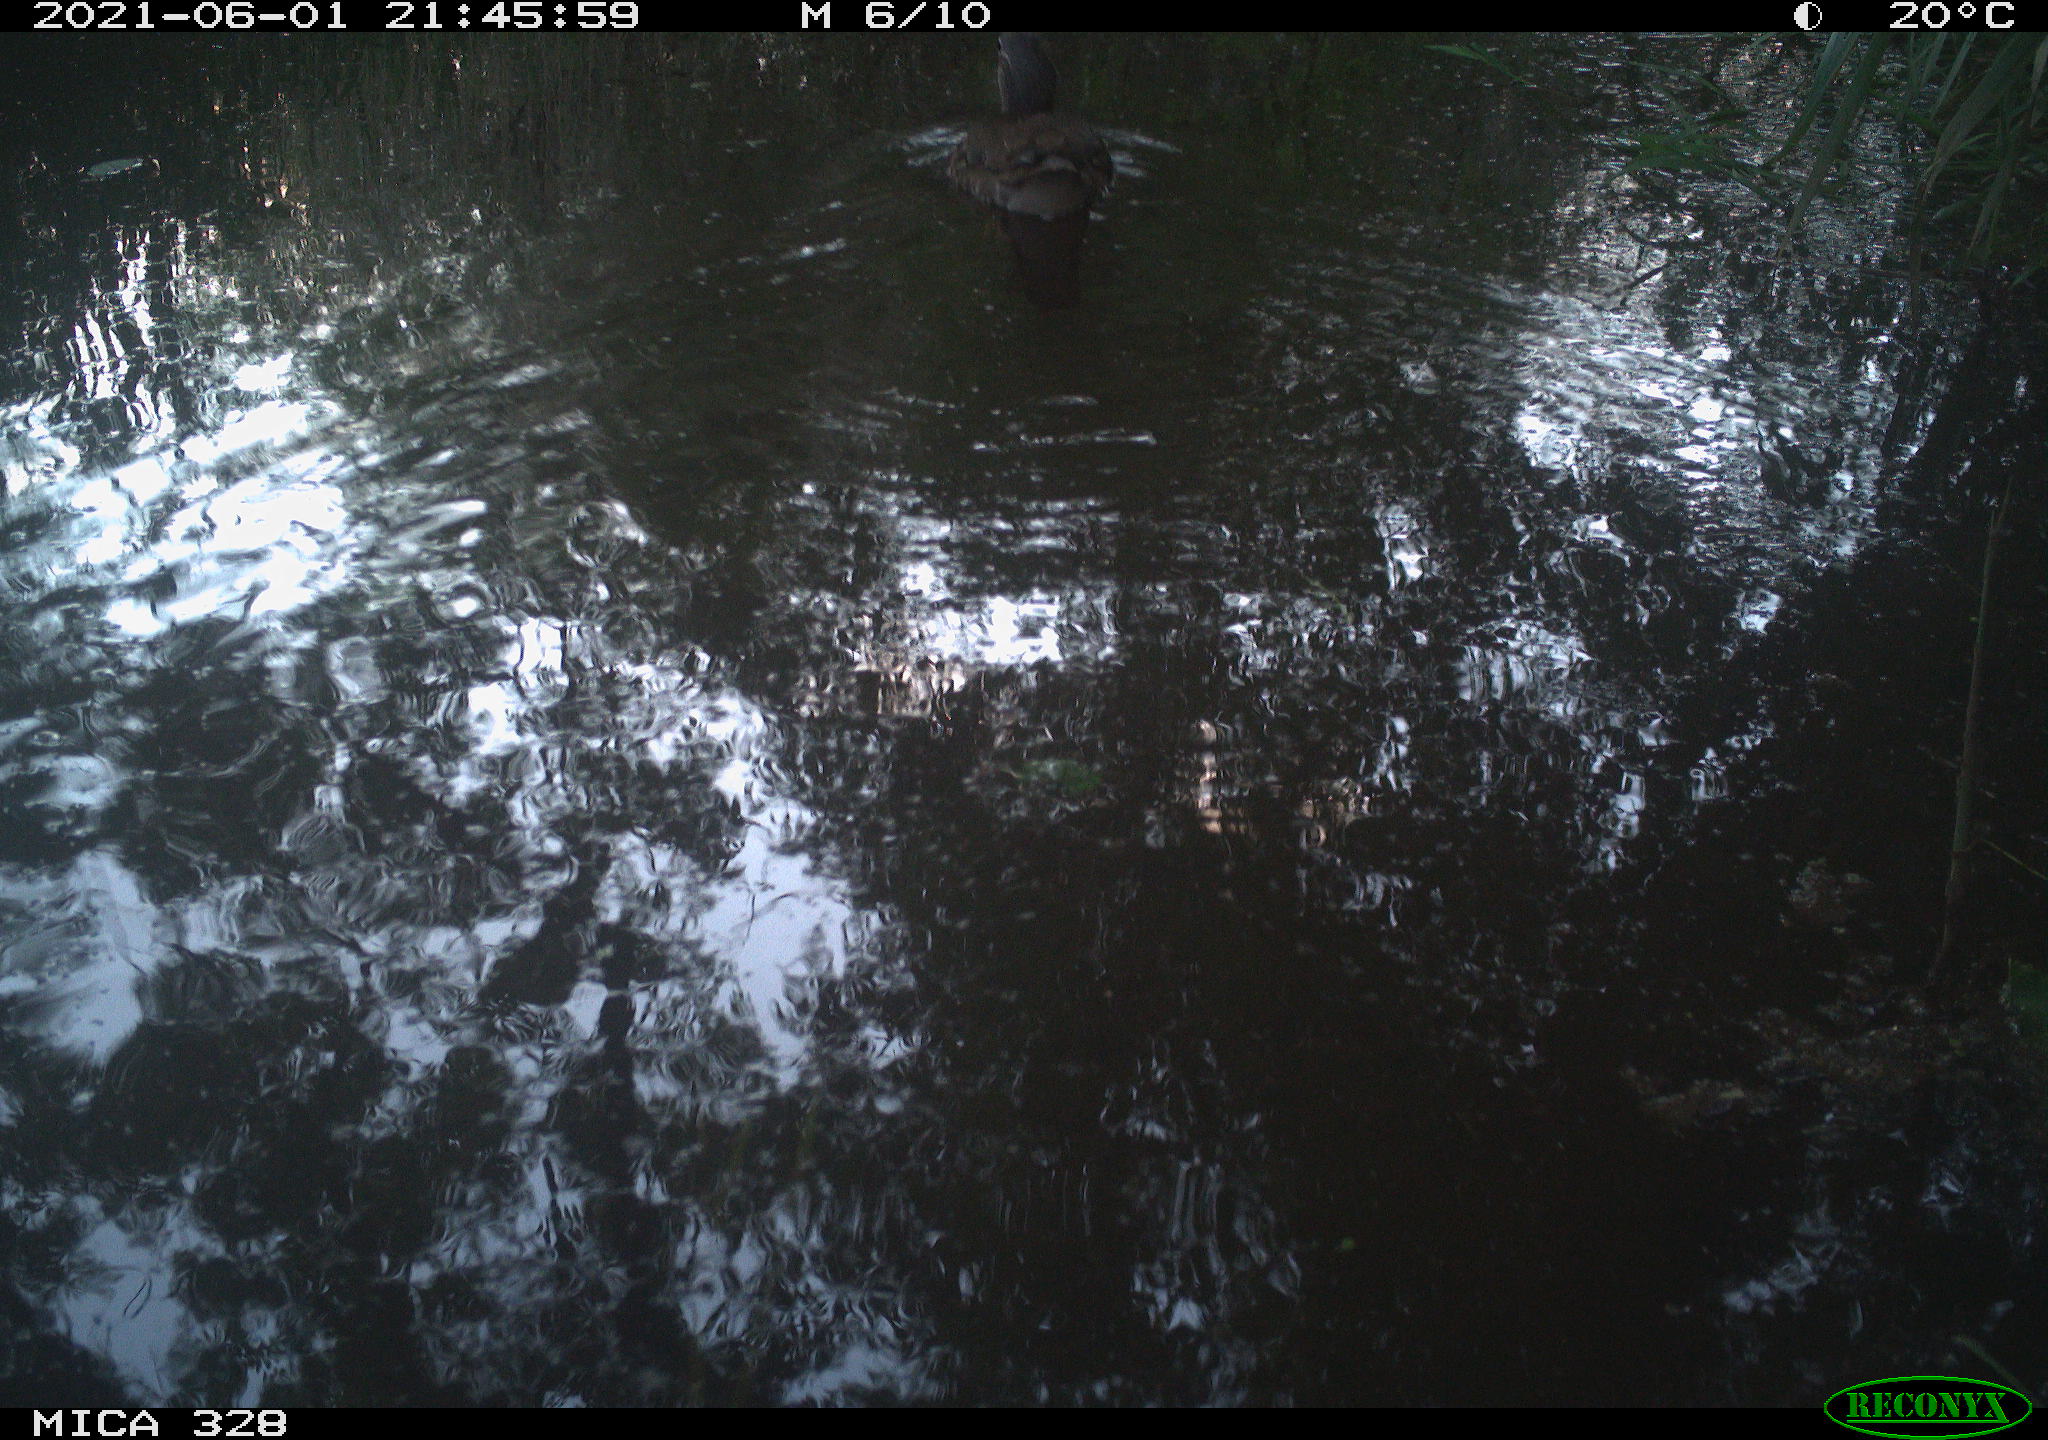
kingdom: Animalia
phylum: Chordata
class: Aves
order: Anseriformes
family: Anatidae
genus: Aix
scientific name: Aix galericulata
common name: Mandarin duck
